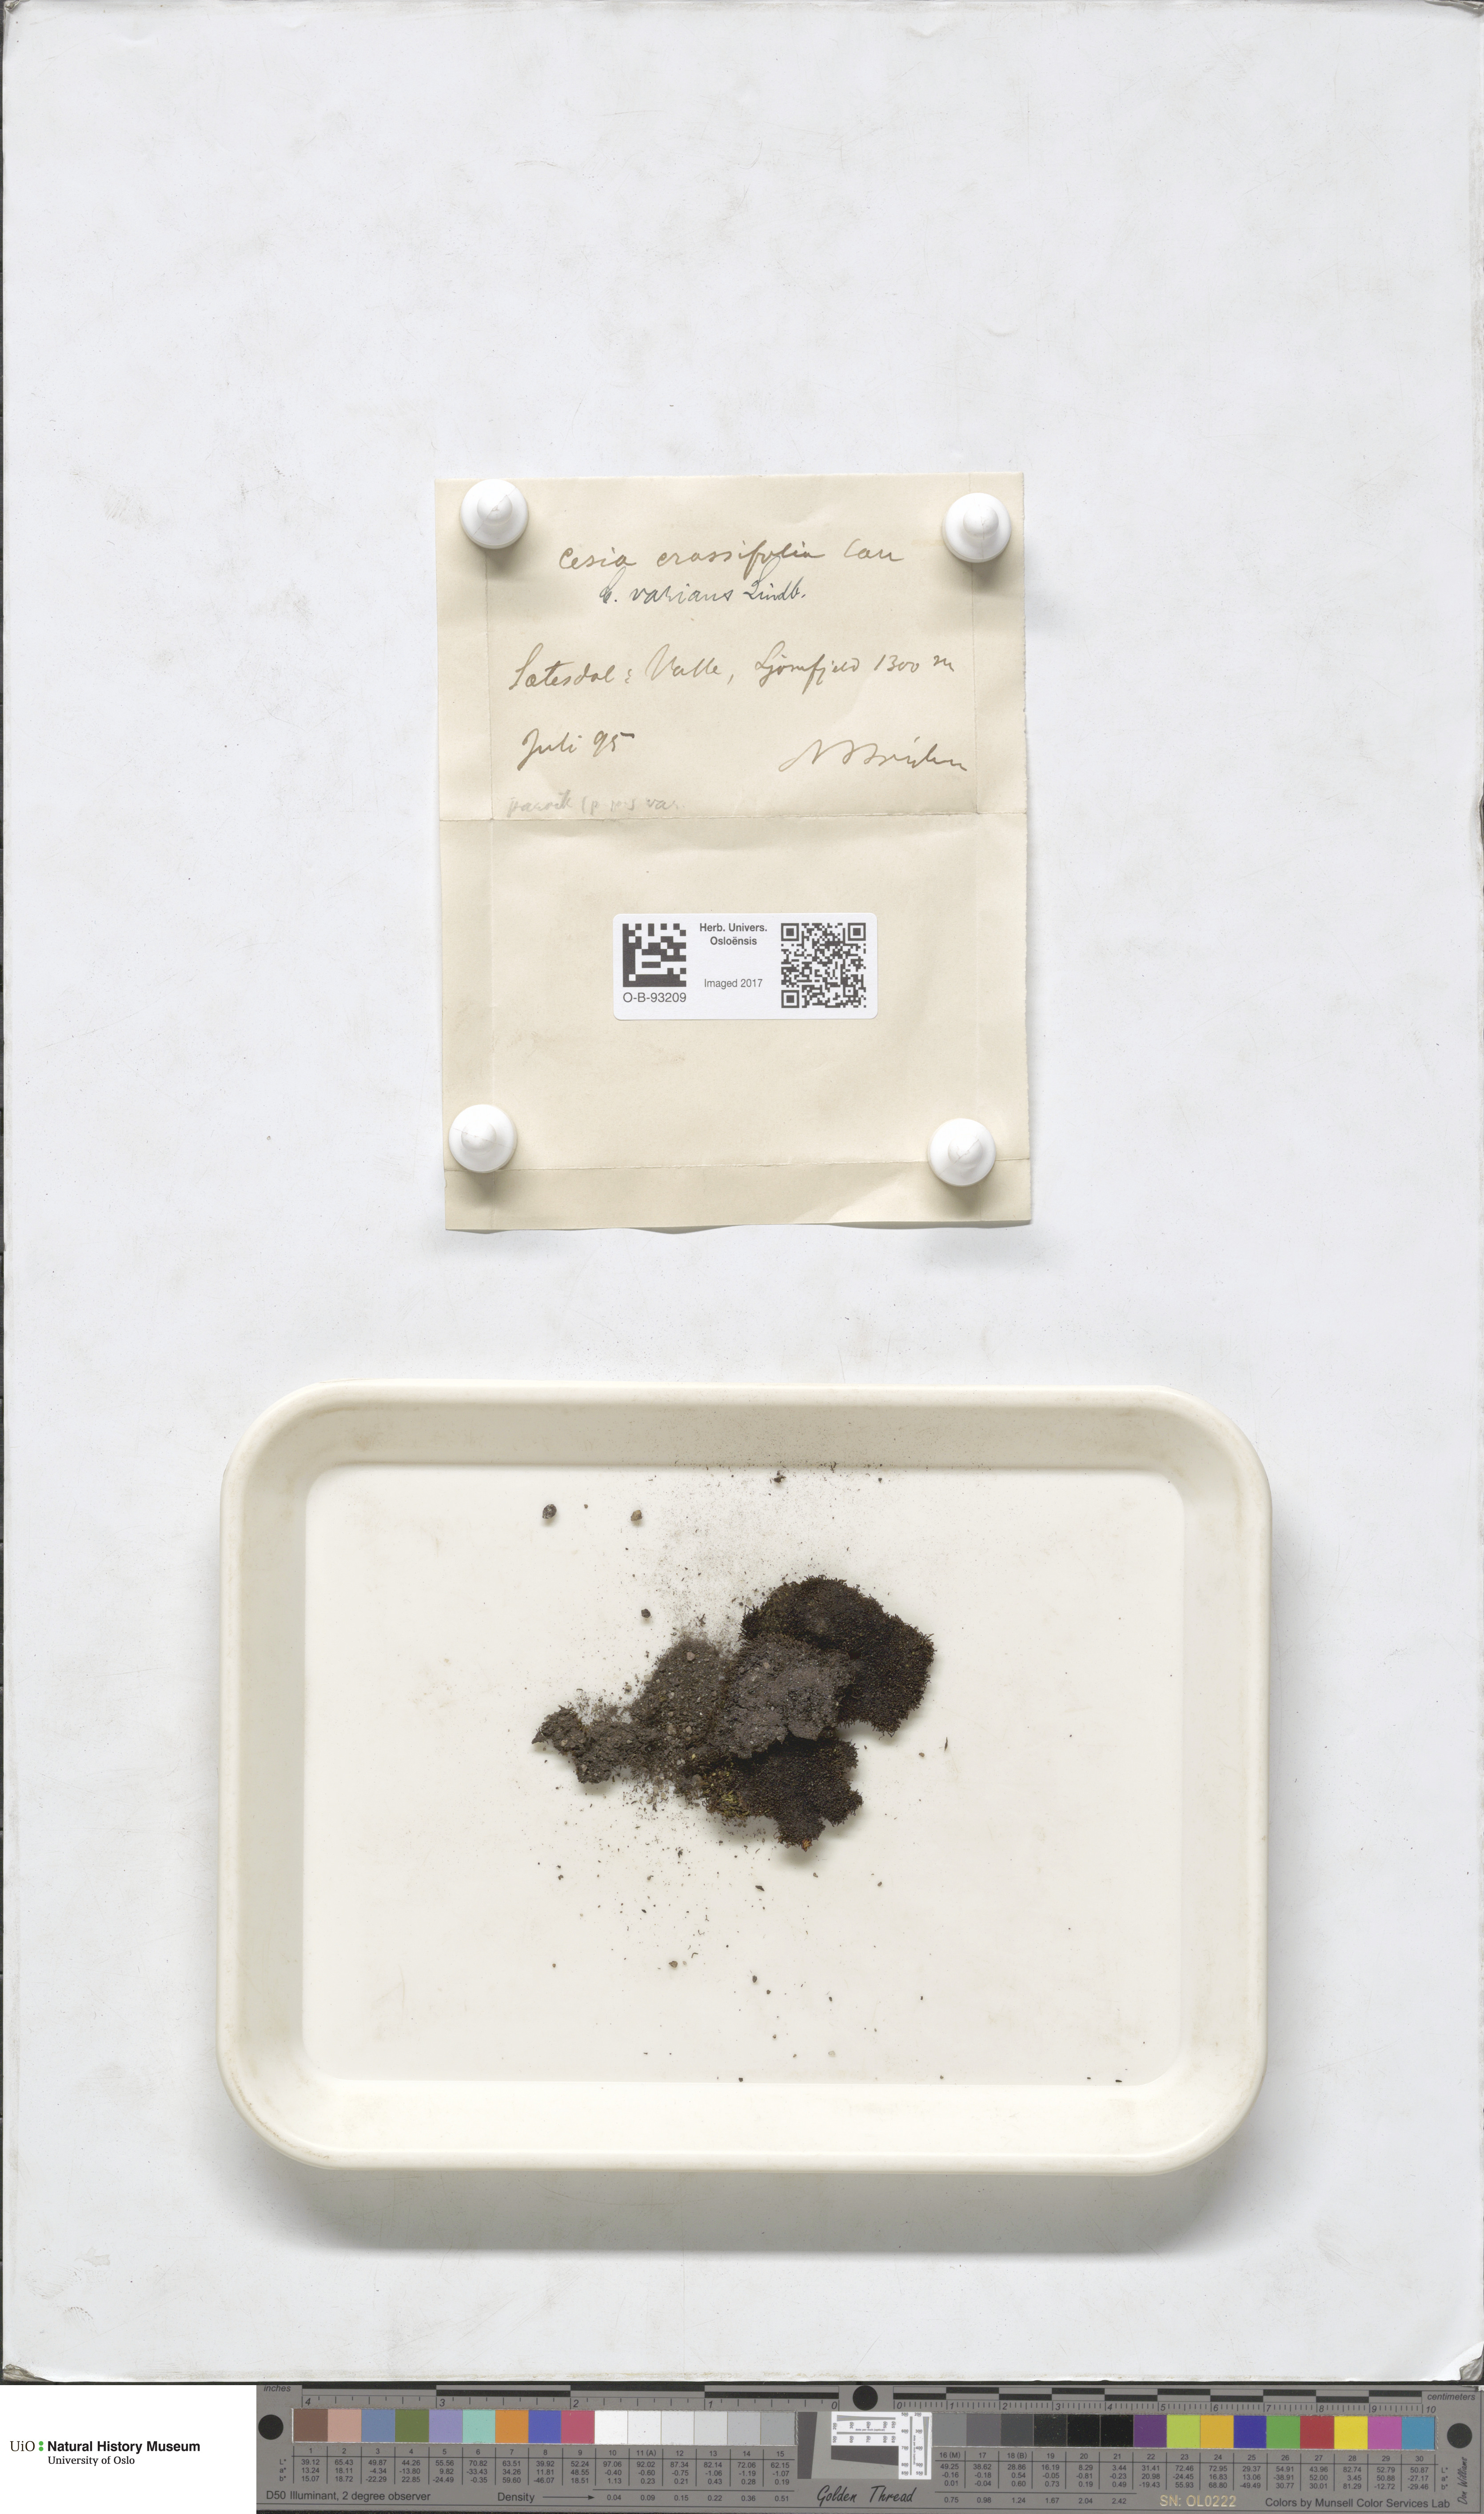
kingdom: Plantae
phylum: Marchantiophyta
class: Jungermanniopsida
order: Jungermanniales
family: Gymnomitriaceae
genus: Gymnomitrion
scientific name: Gymnomitrion brevissimum
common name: Snow rustwort
